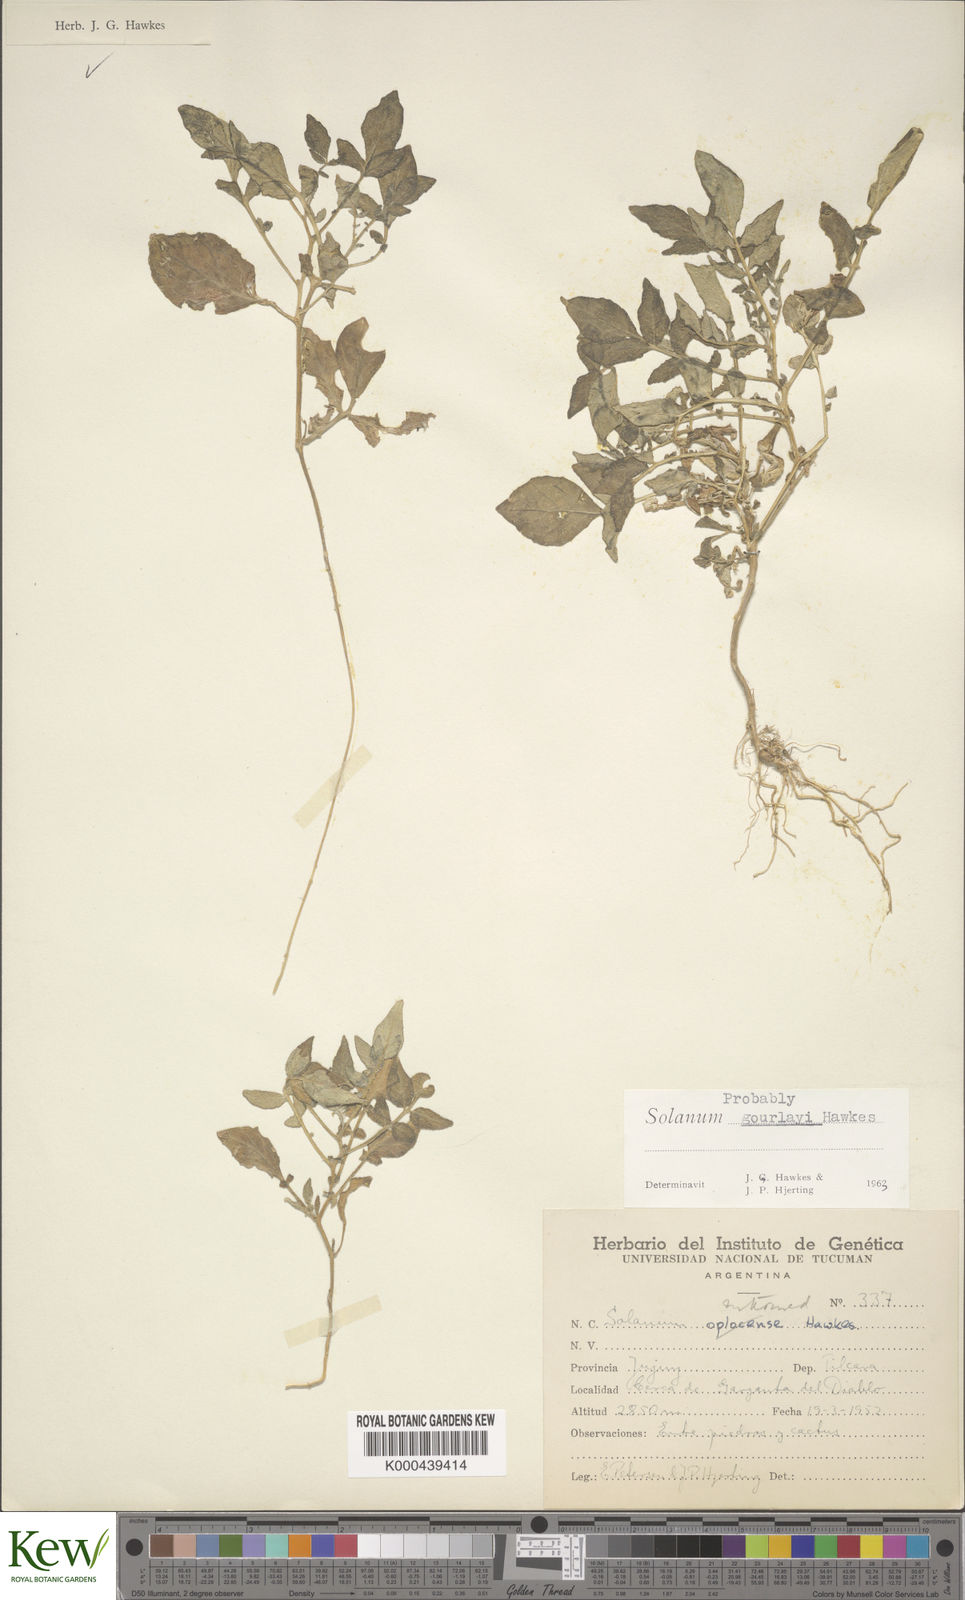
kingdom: Plantae
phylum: Tracheophyta
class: Magnoliopsida
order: Solanales
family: Solanaceae
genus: Solanum
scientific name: Solanum brevicaule
